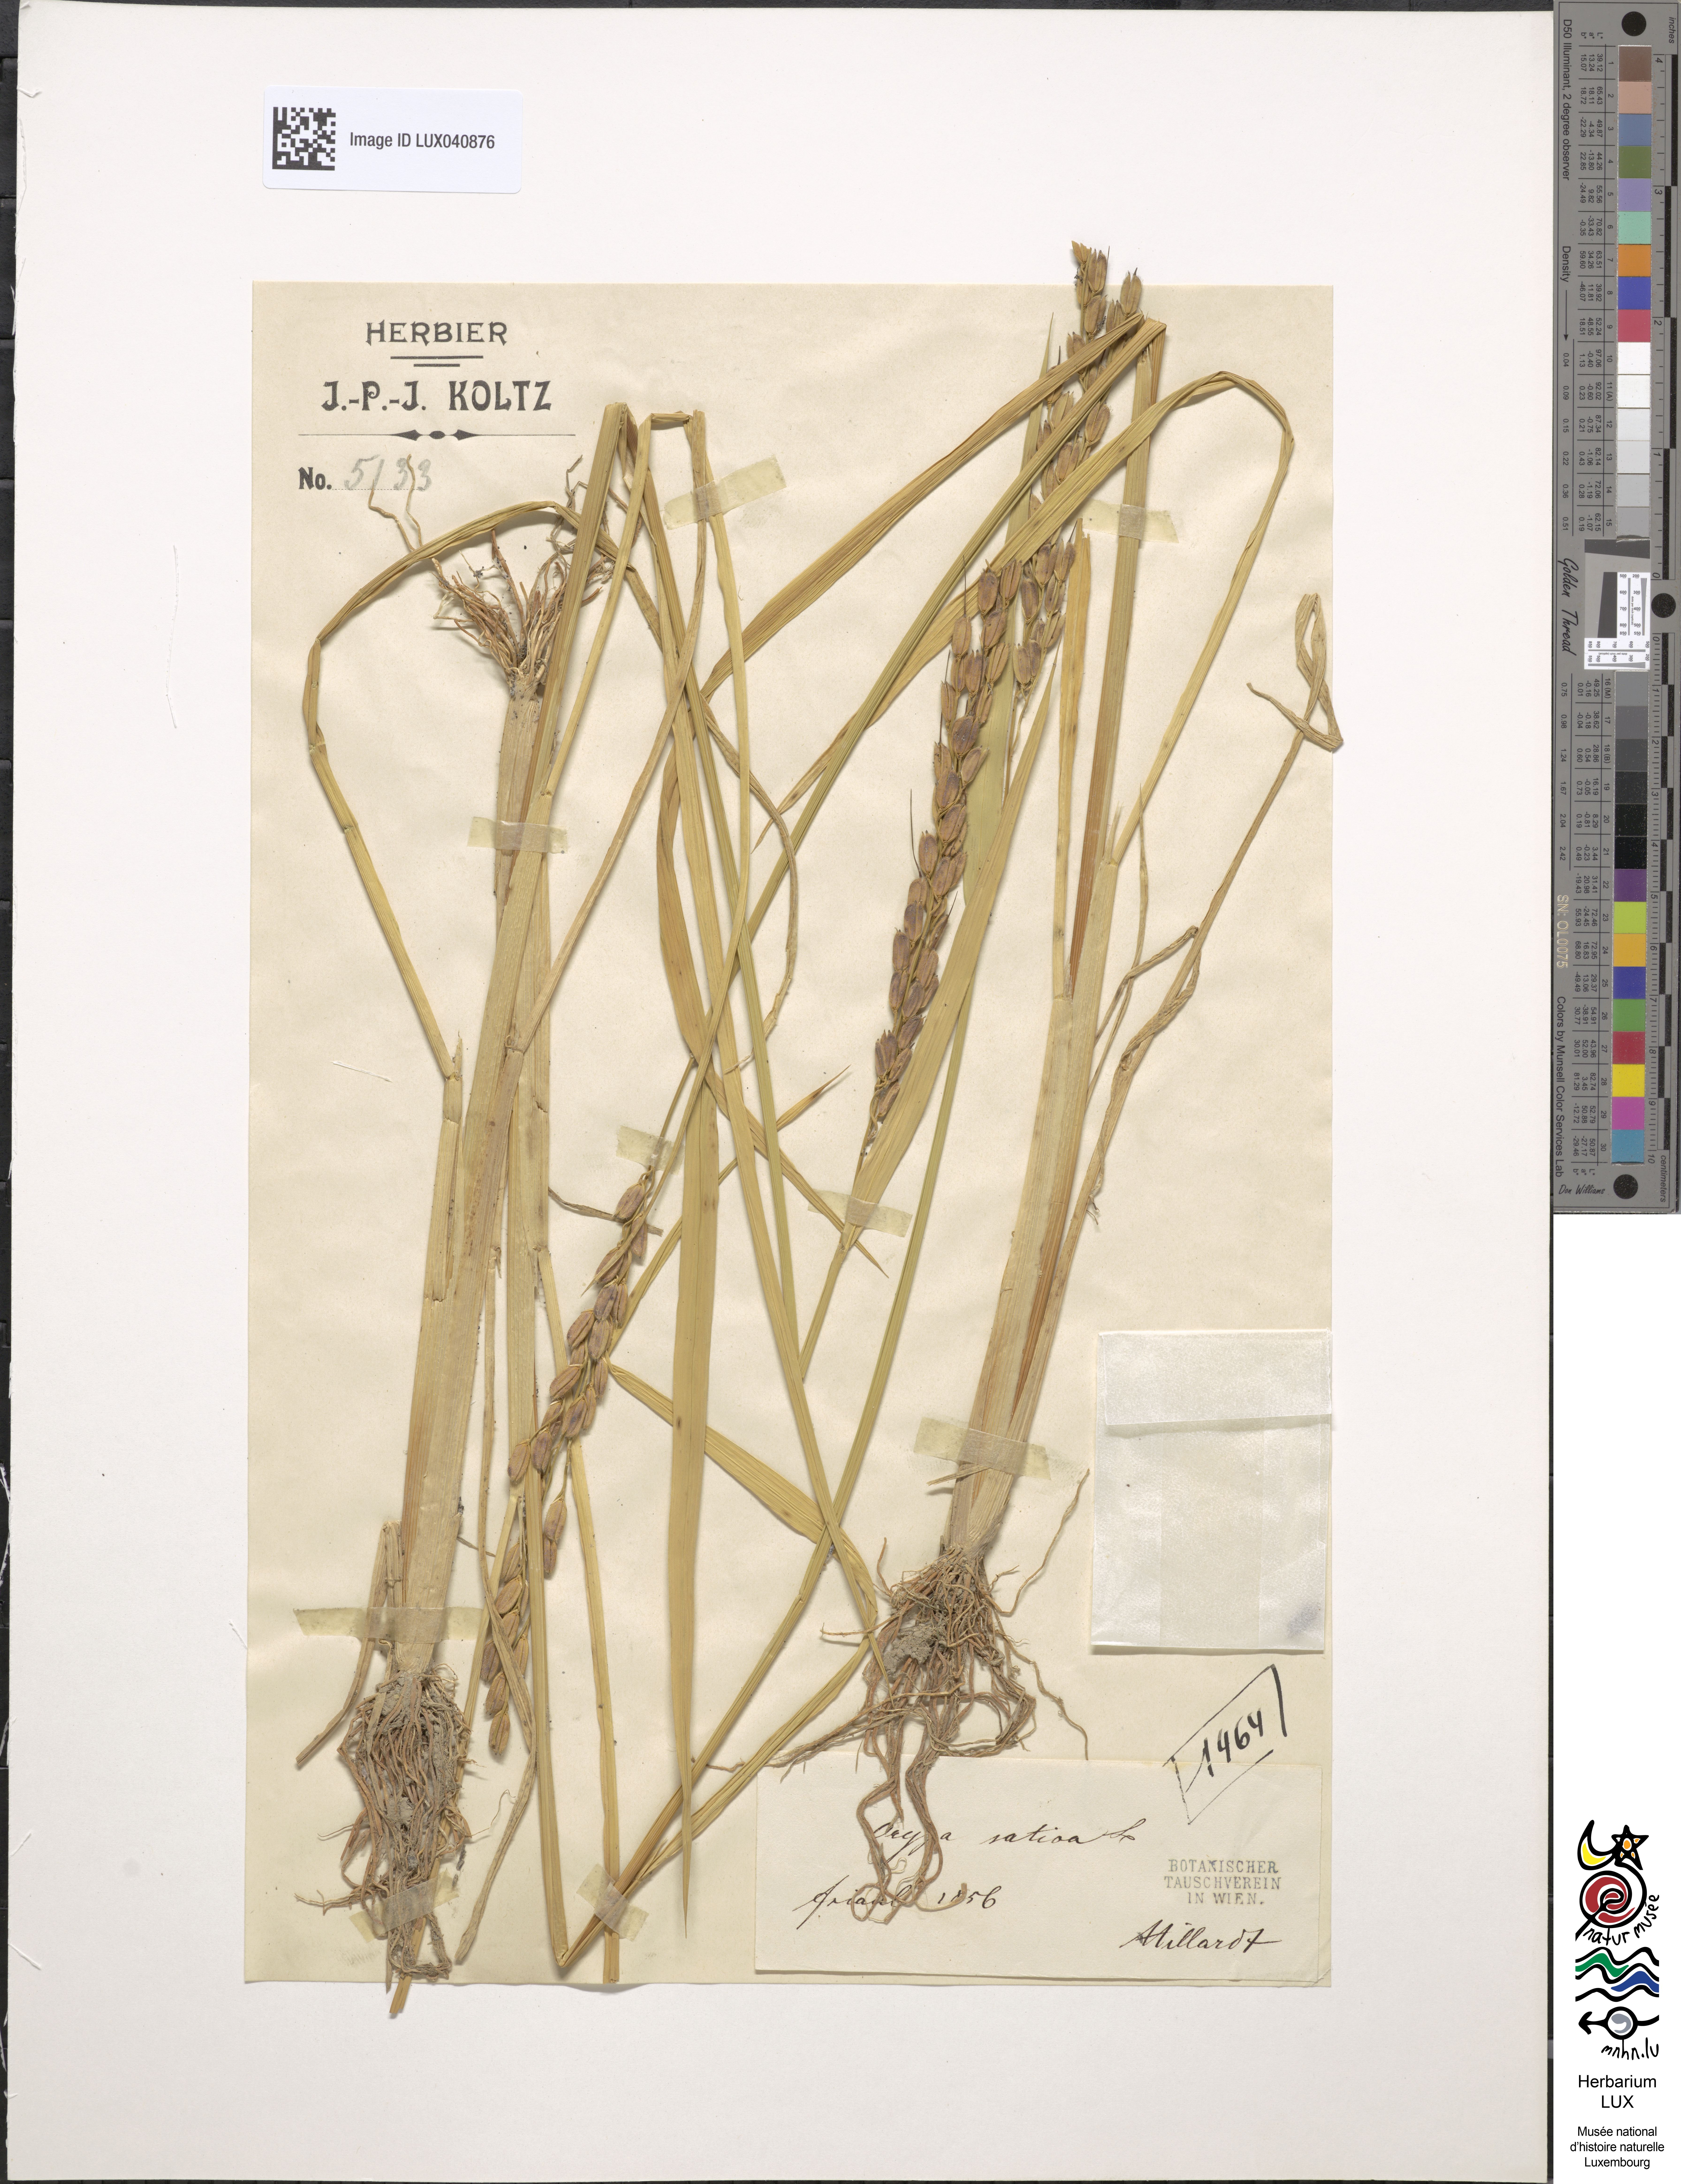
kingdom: Plantae
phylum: Tracheophyta
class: Liliopsida
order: Poales
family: Poaceae
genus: Oryza
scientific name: Oryza sativa
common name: Rice
